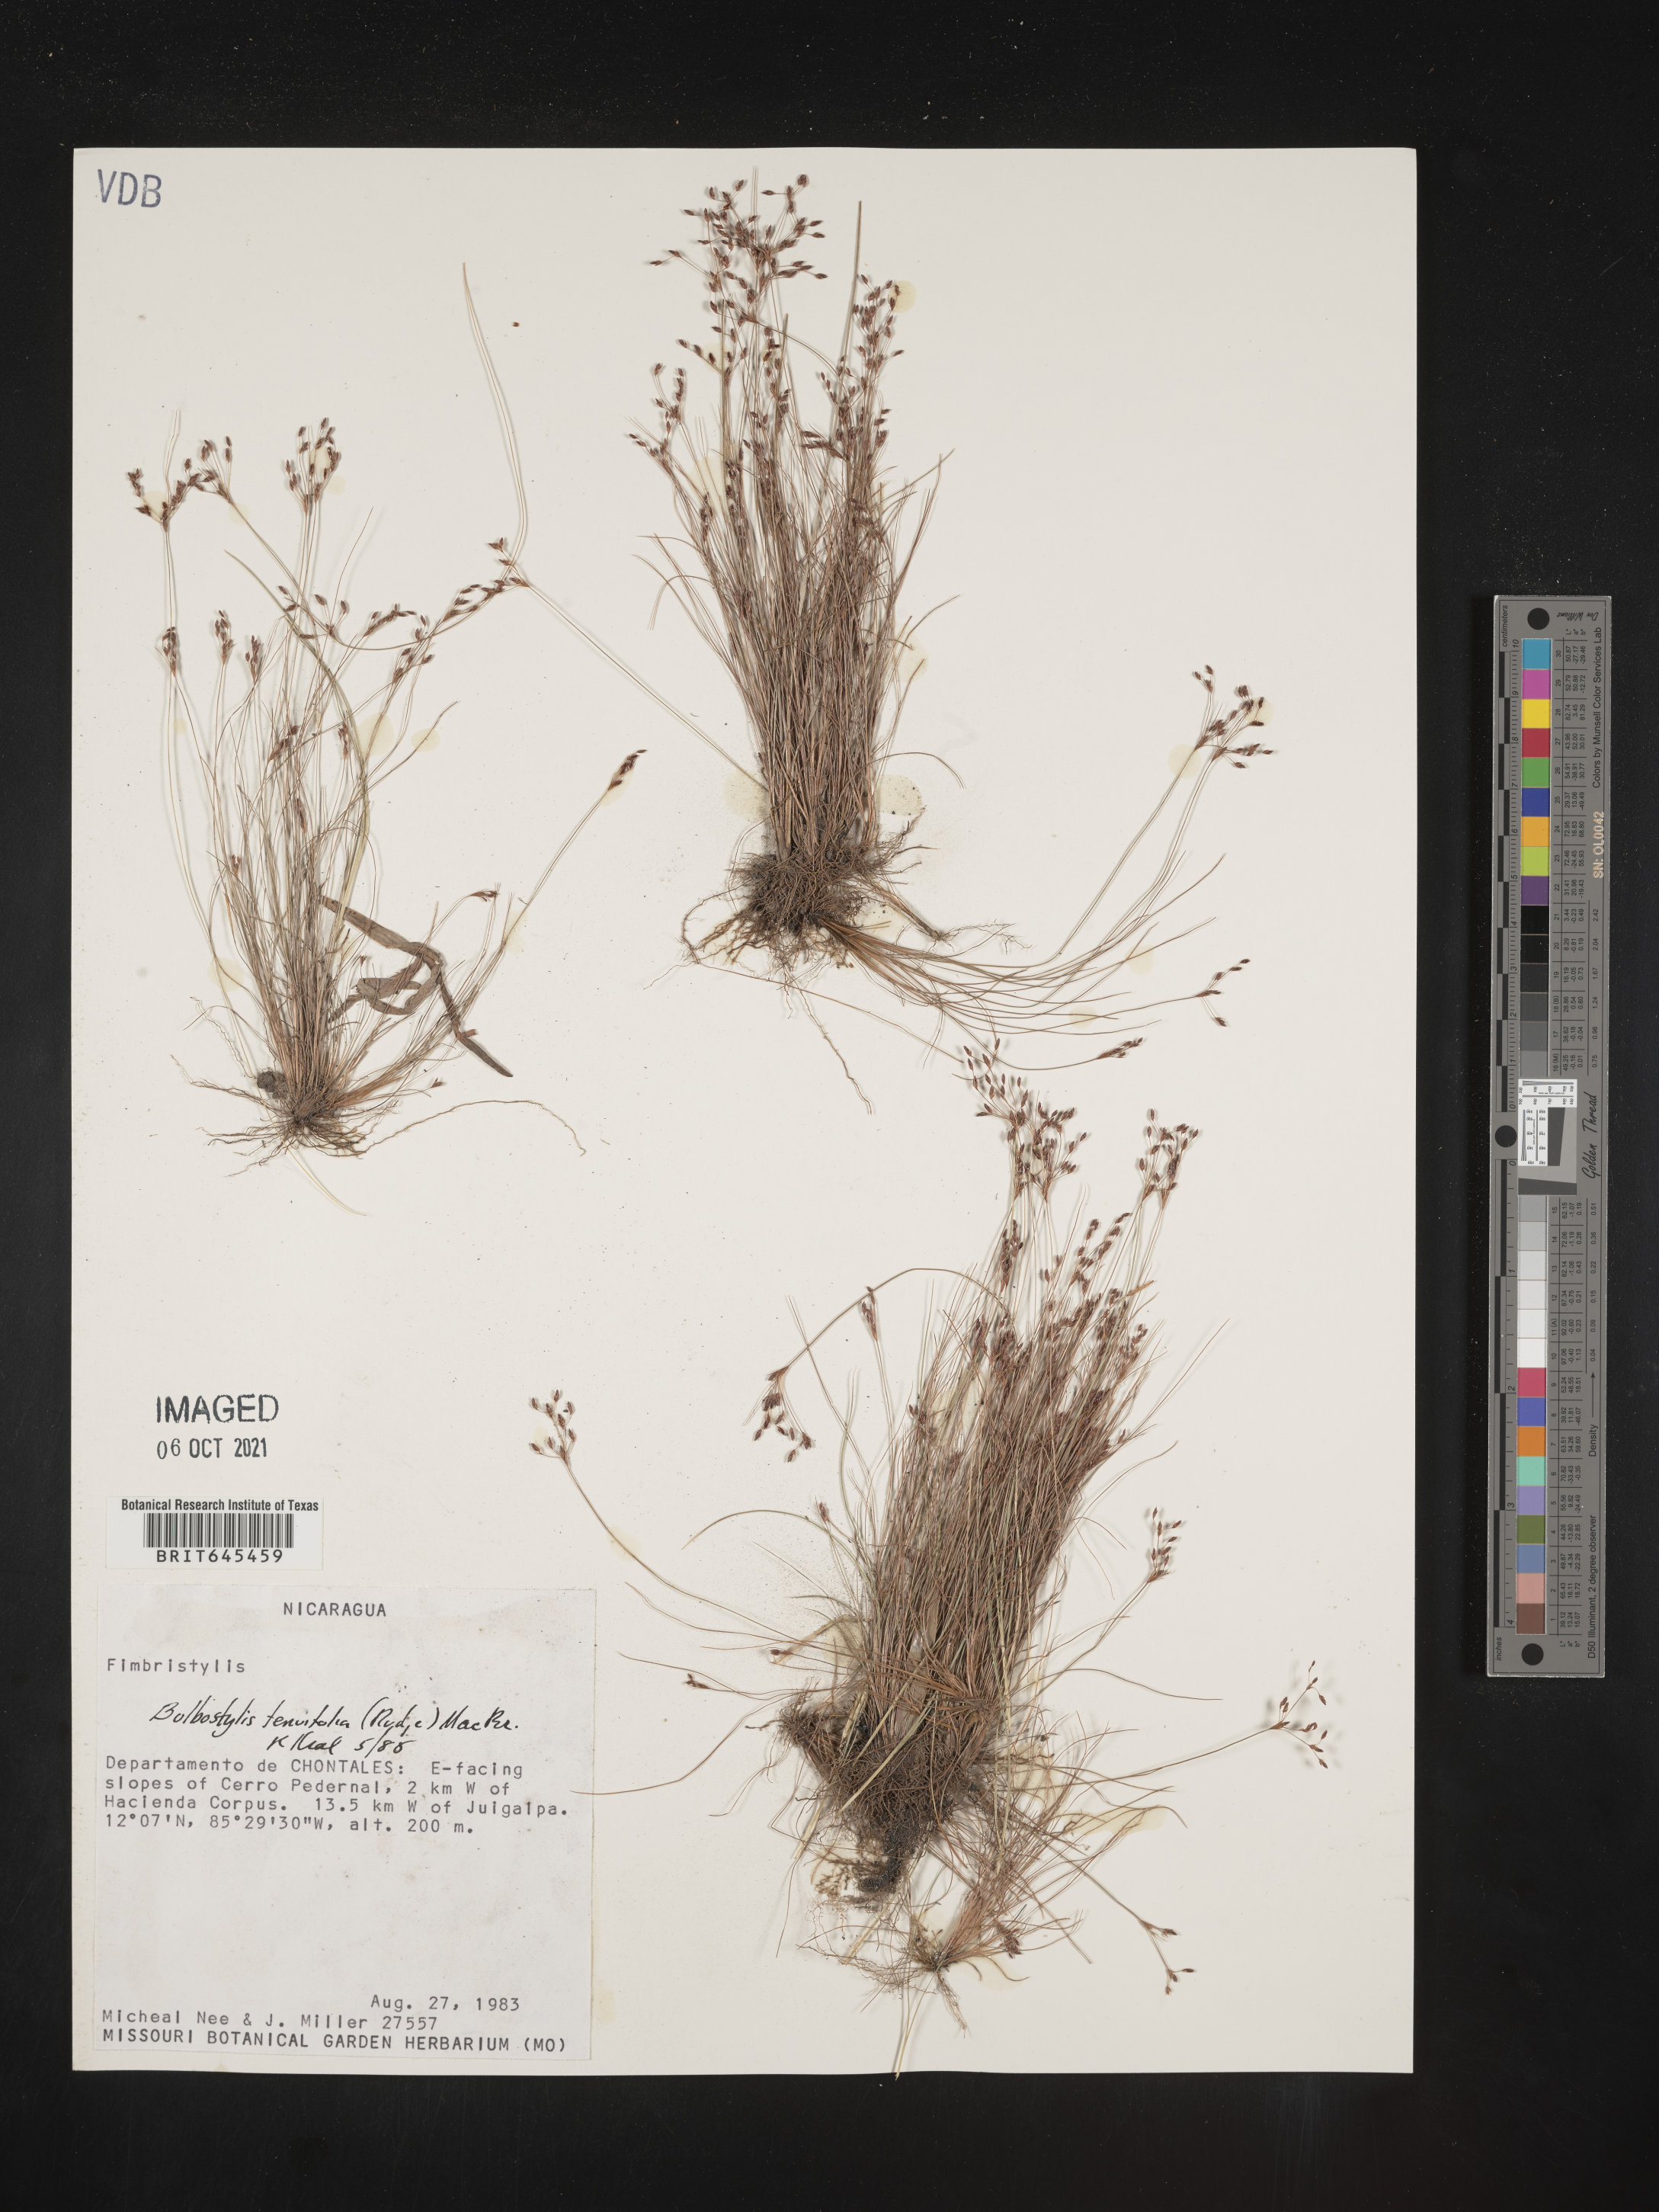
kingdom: Plantae
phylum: Tracheophyta
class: Liliopsida
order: Poales
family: Cyperaceae
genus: Eleocharis
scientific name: Eleocharis Bulbostylis tenuifolia
